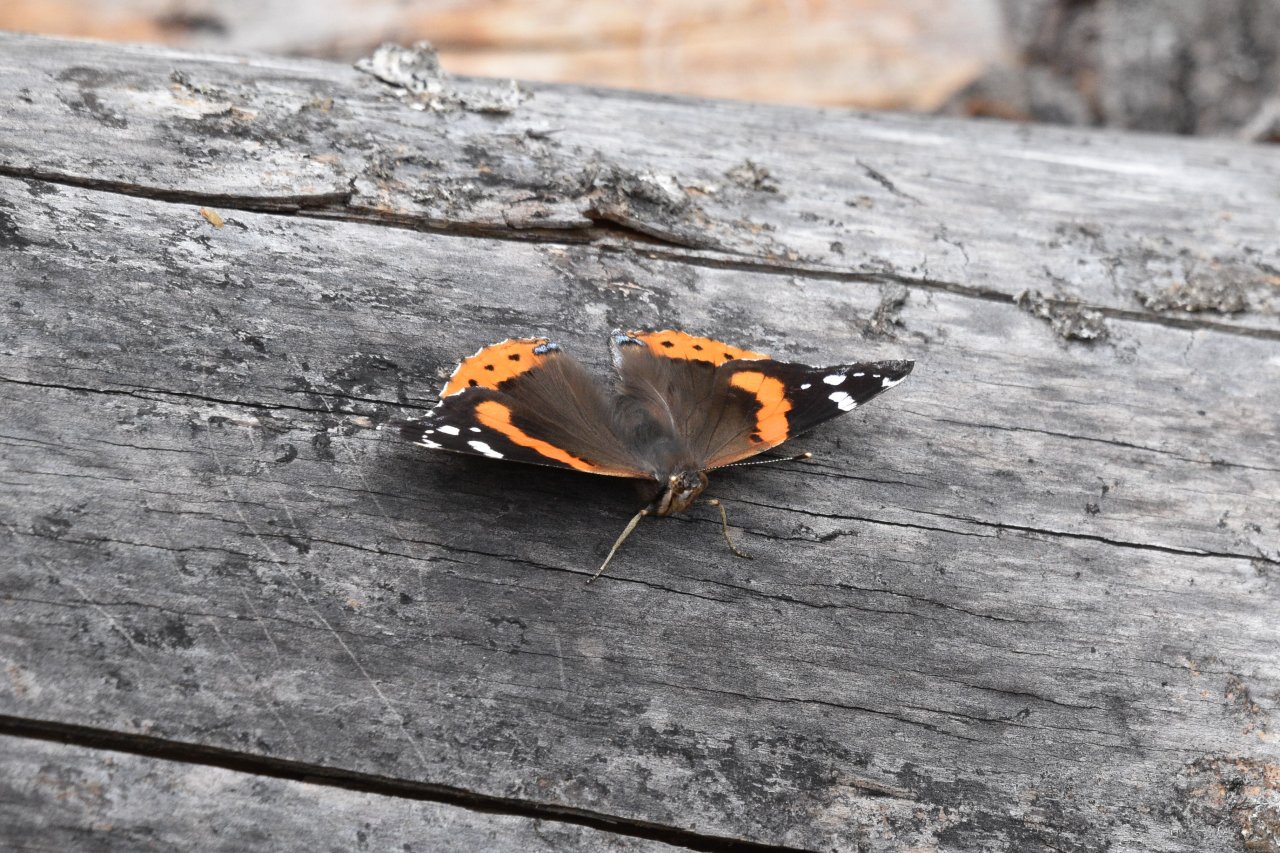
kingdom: Animalia
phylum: Arthropoda
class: Insecta
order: Lepidoptera
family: Nymphalidae
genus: Vanessa
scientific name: Vanessa atalanta
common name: Red Admiral
